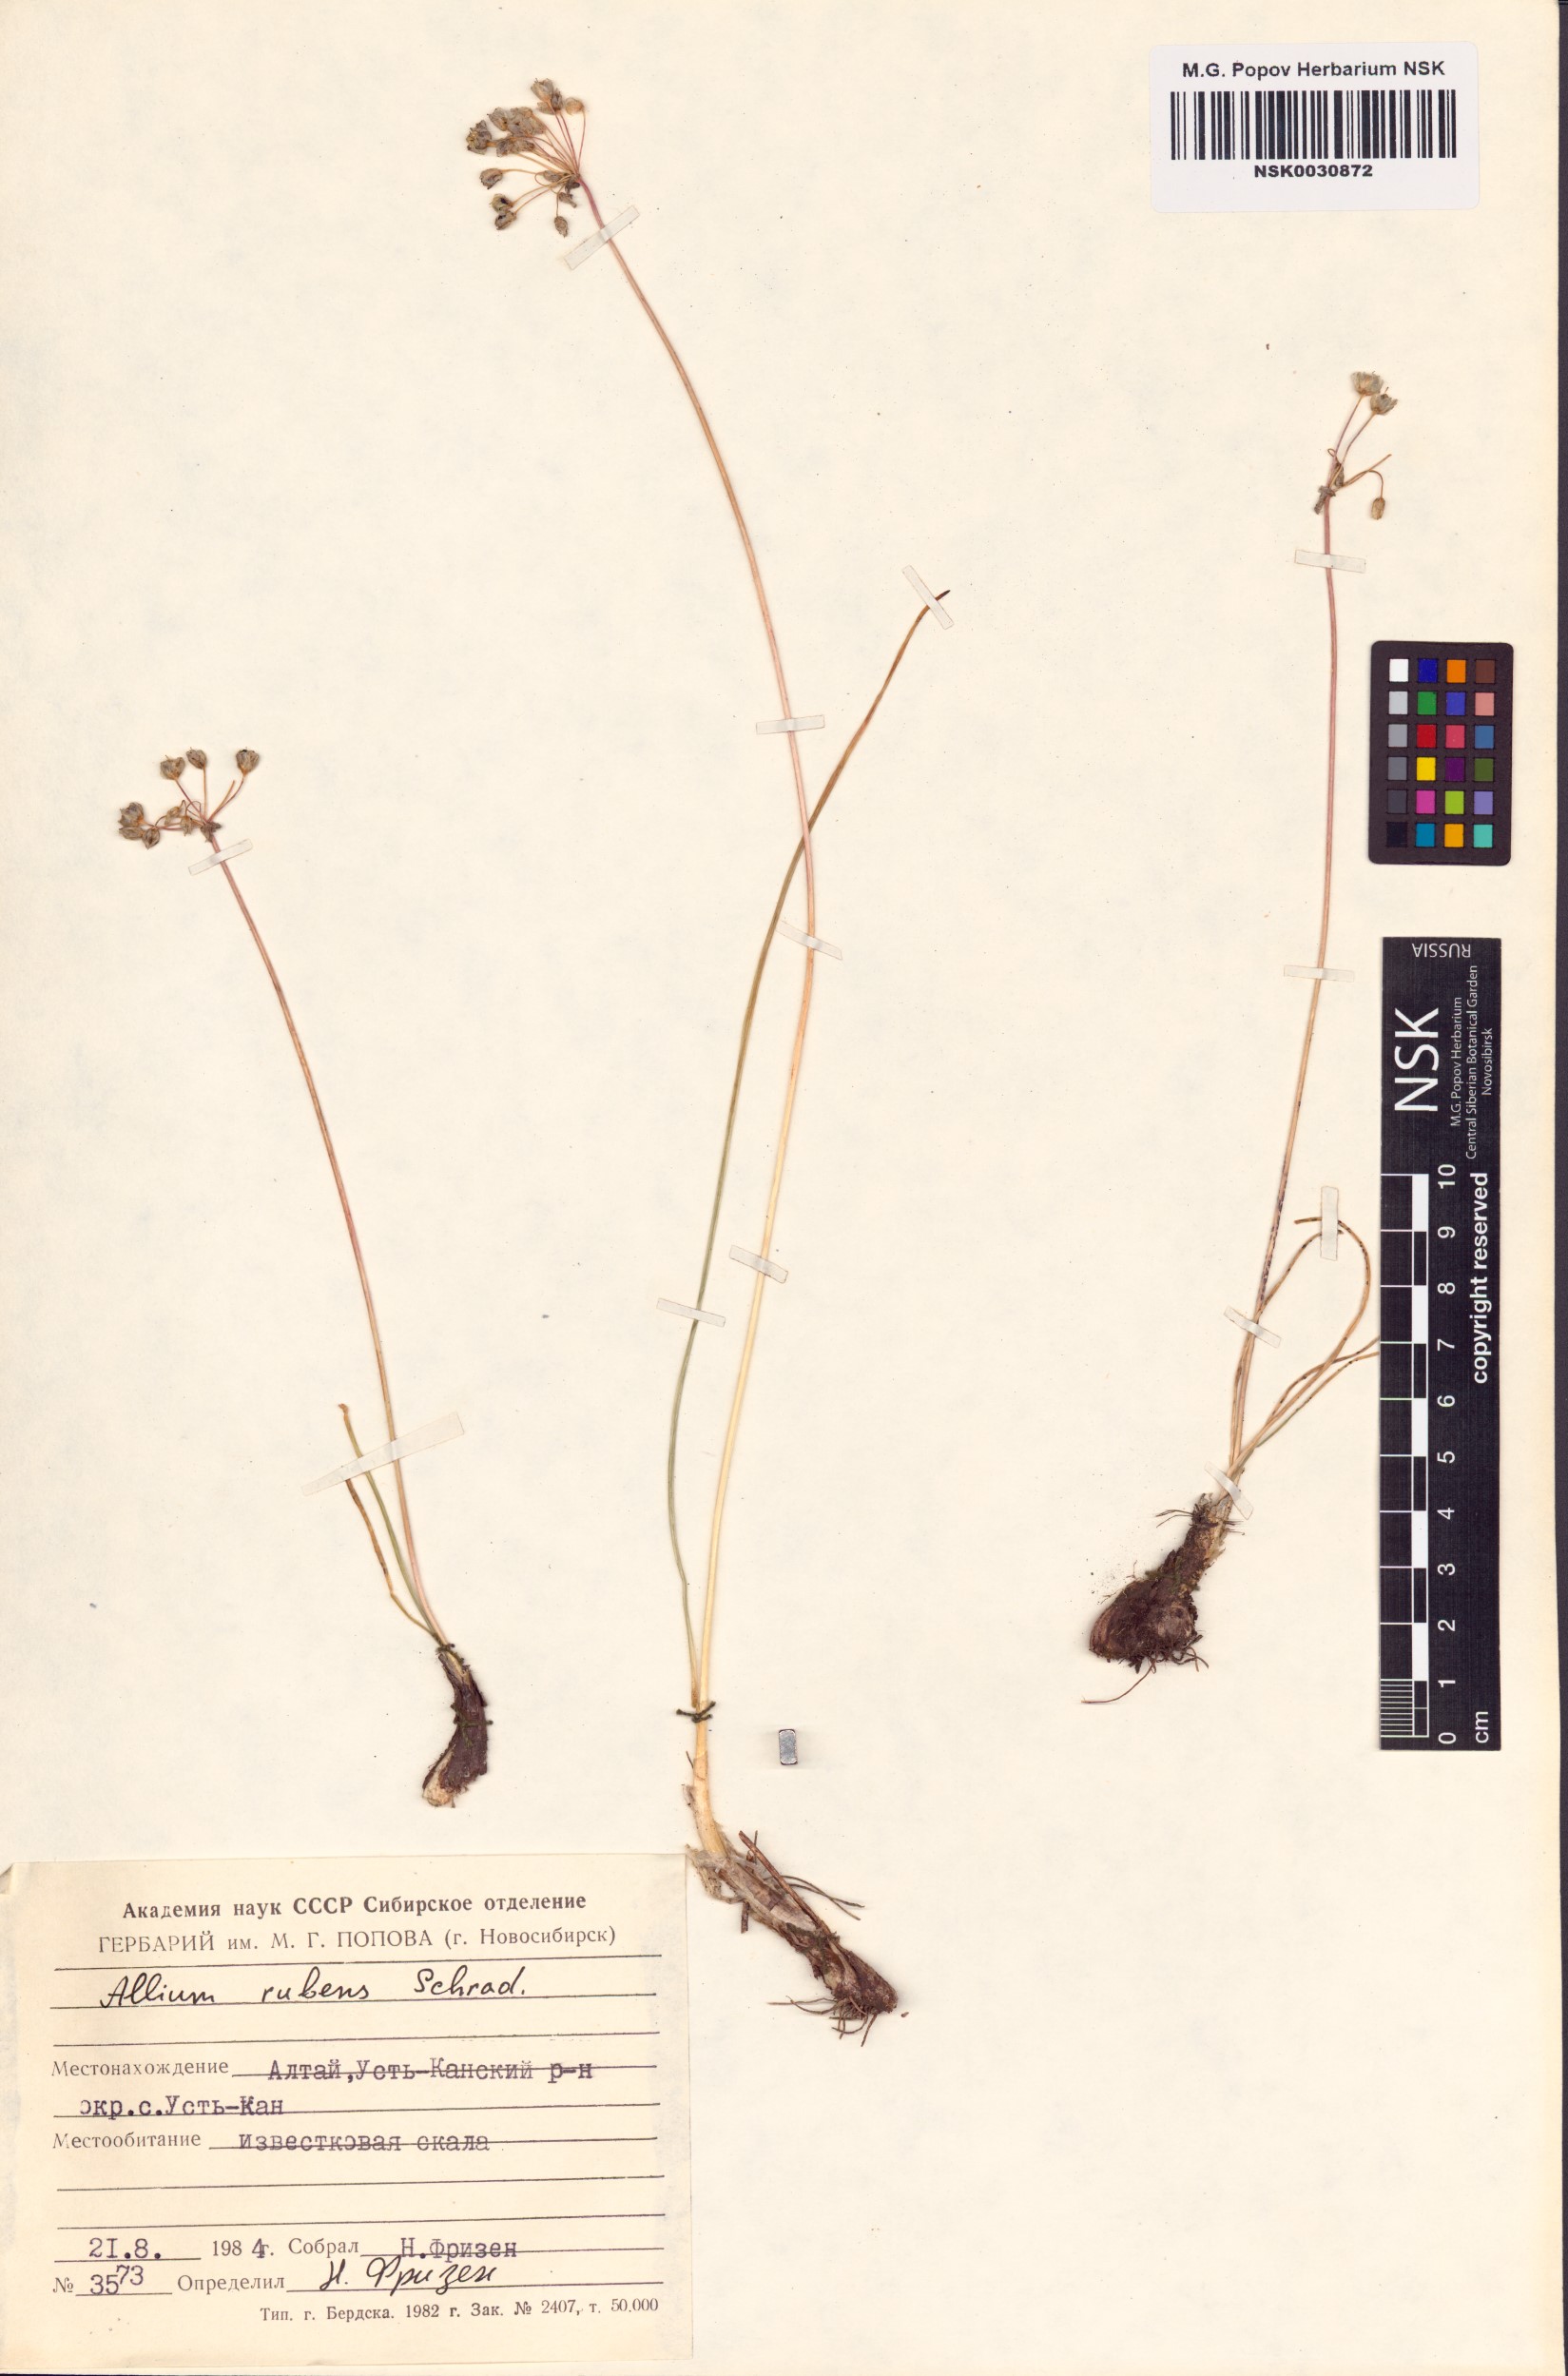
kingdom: Plantae
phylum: Tracheophyta
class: Liliopsida
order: Asparagales
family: Amaryllidaceae
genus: Allium
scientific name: Allium rubens
